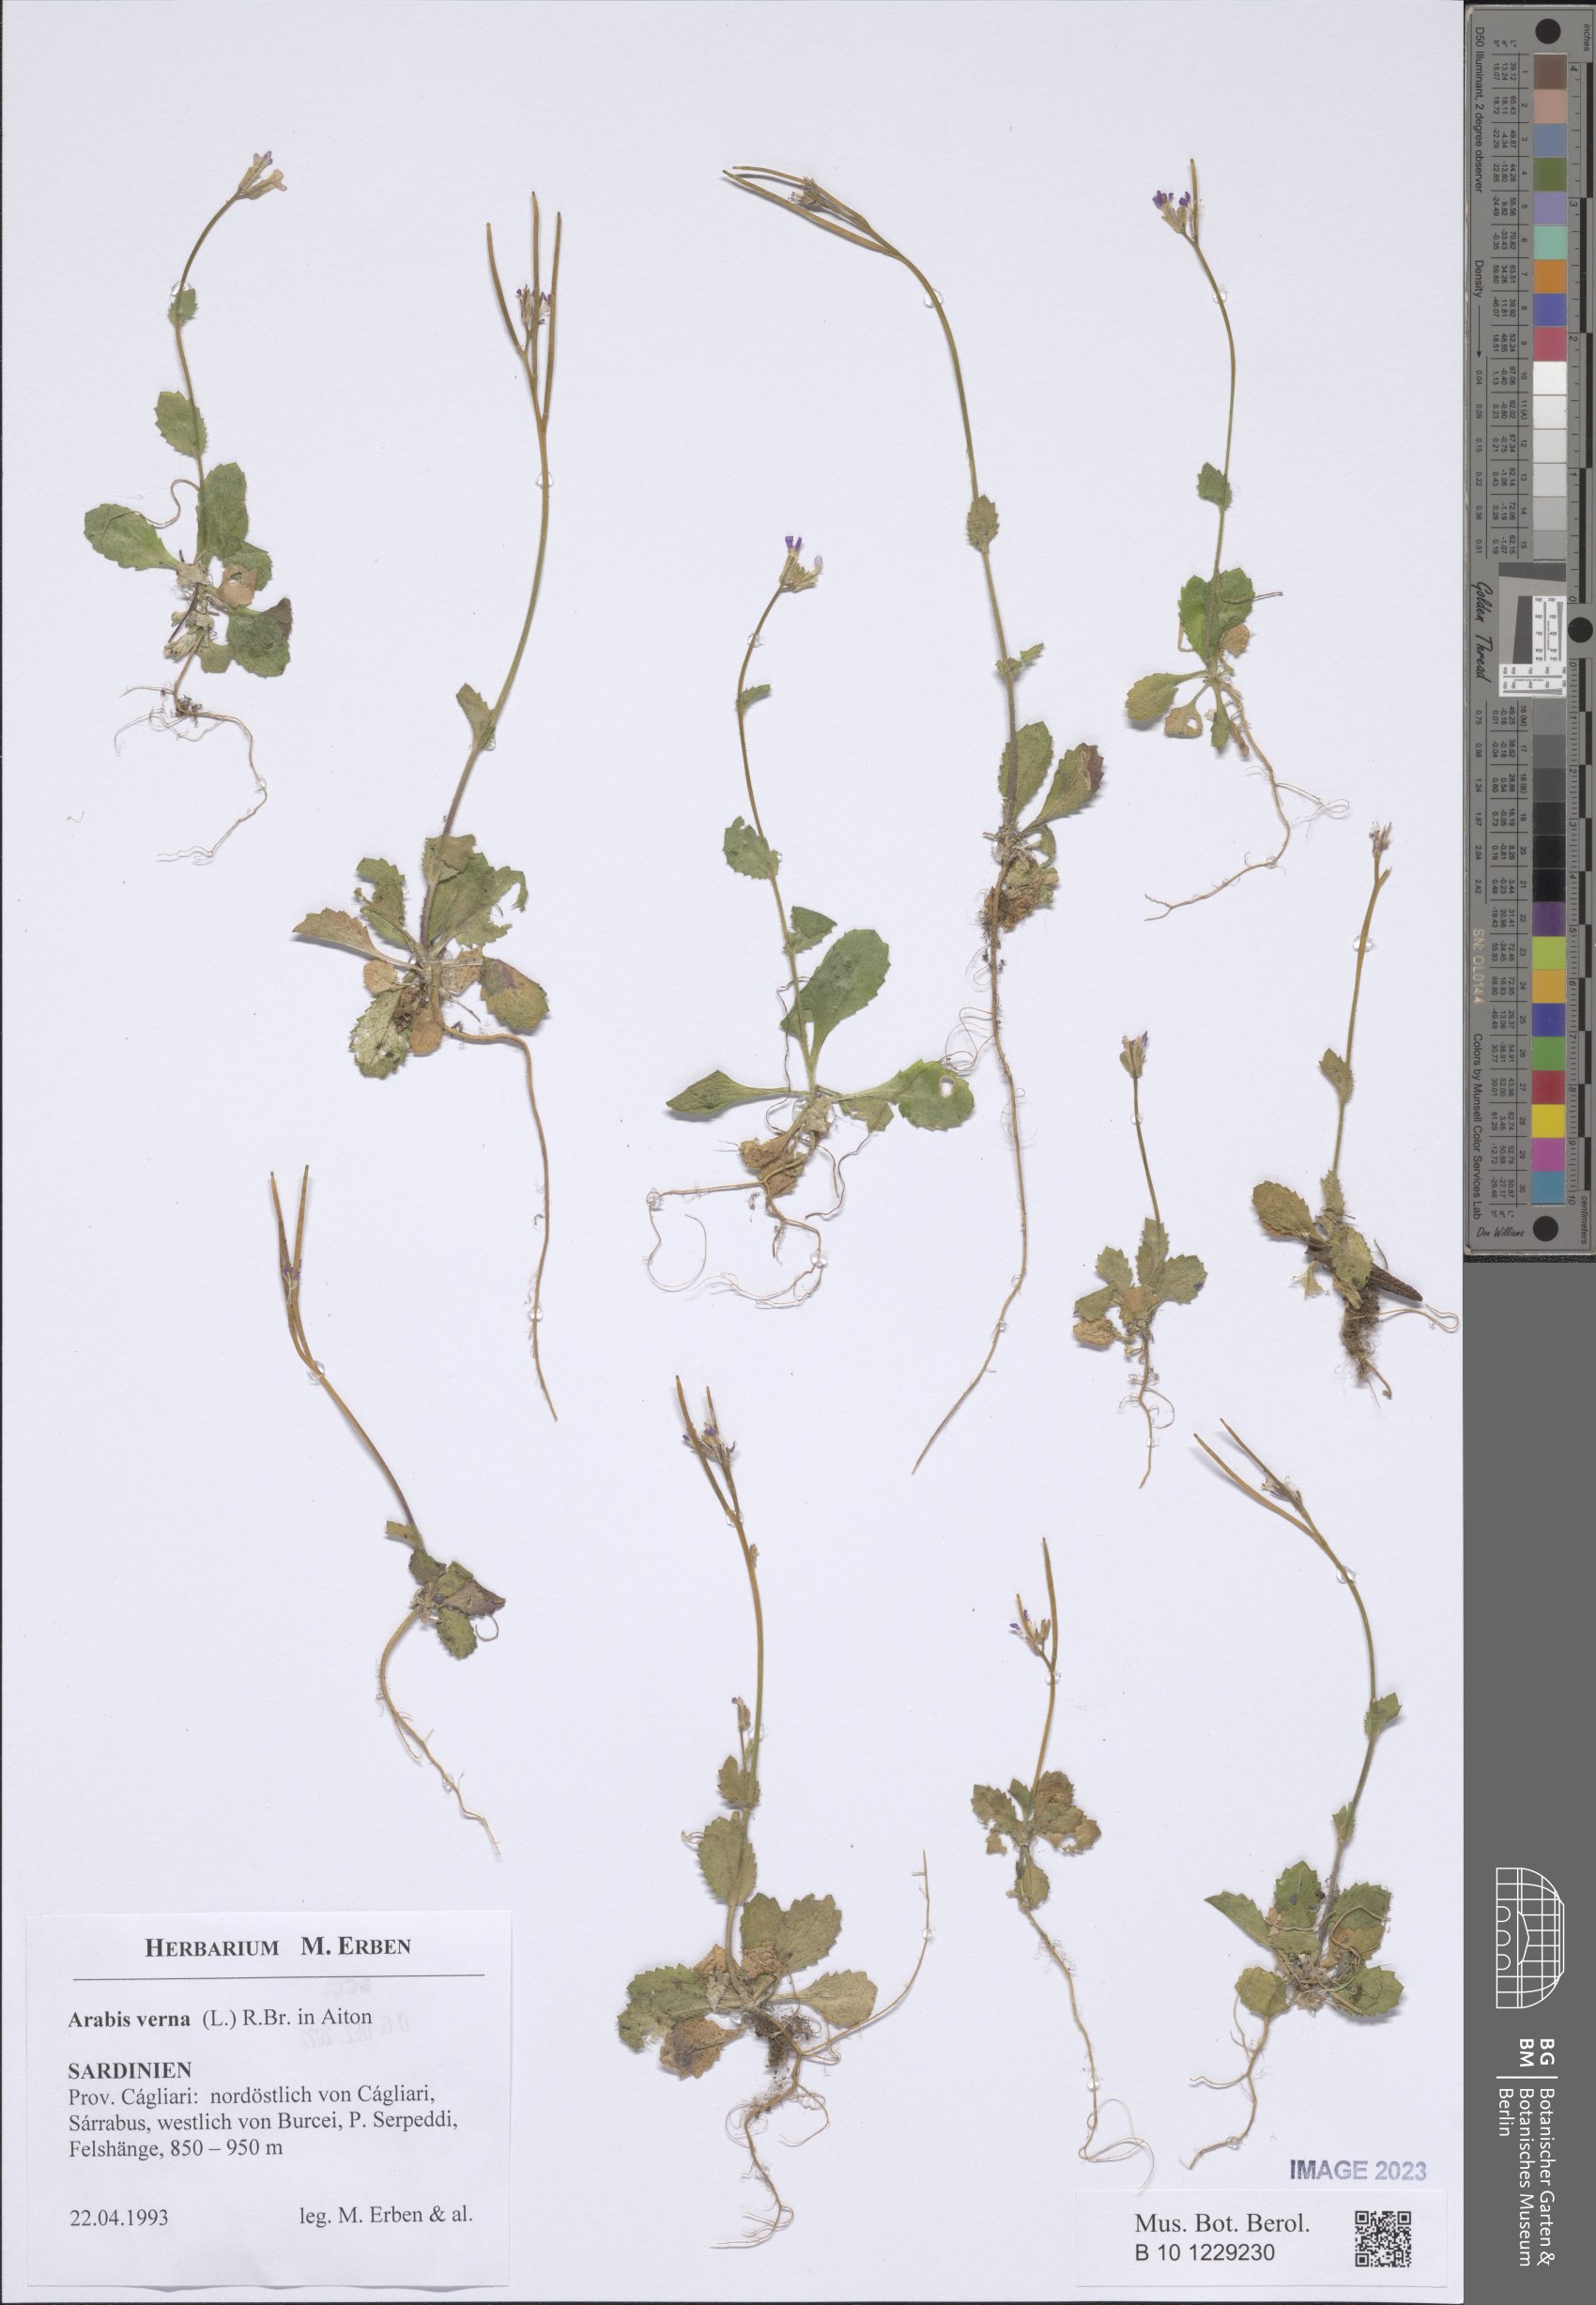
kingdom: Plantae
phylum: Tracheophyta
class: Magnoliopsida
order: Brassicales
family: Brassicaceae
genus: Arabis
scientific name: Arabis verna
